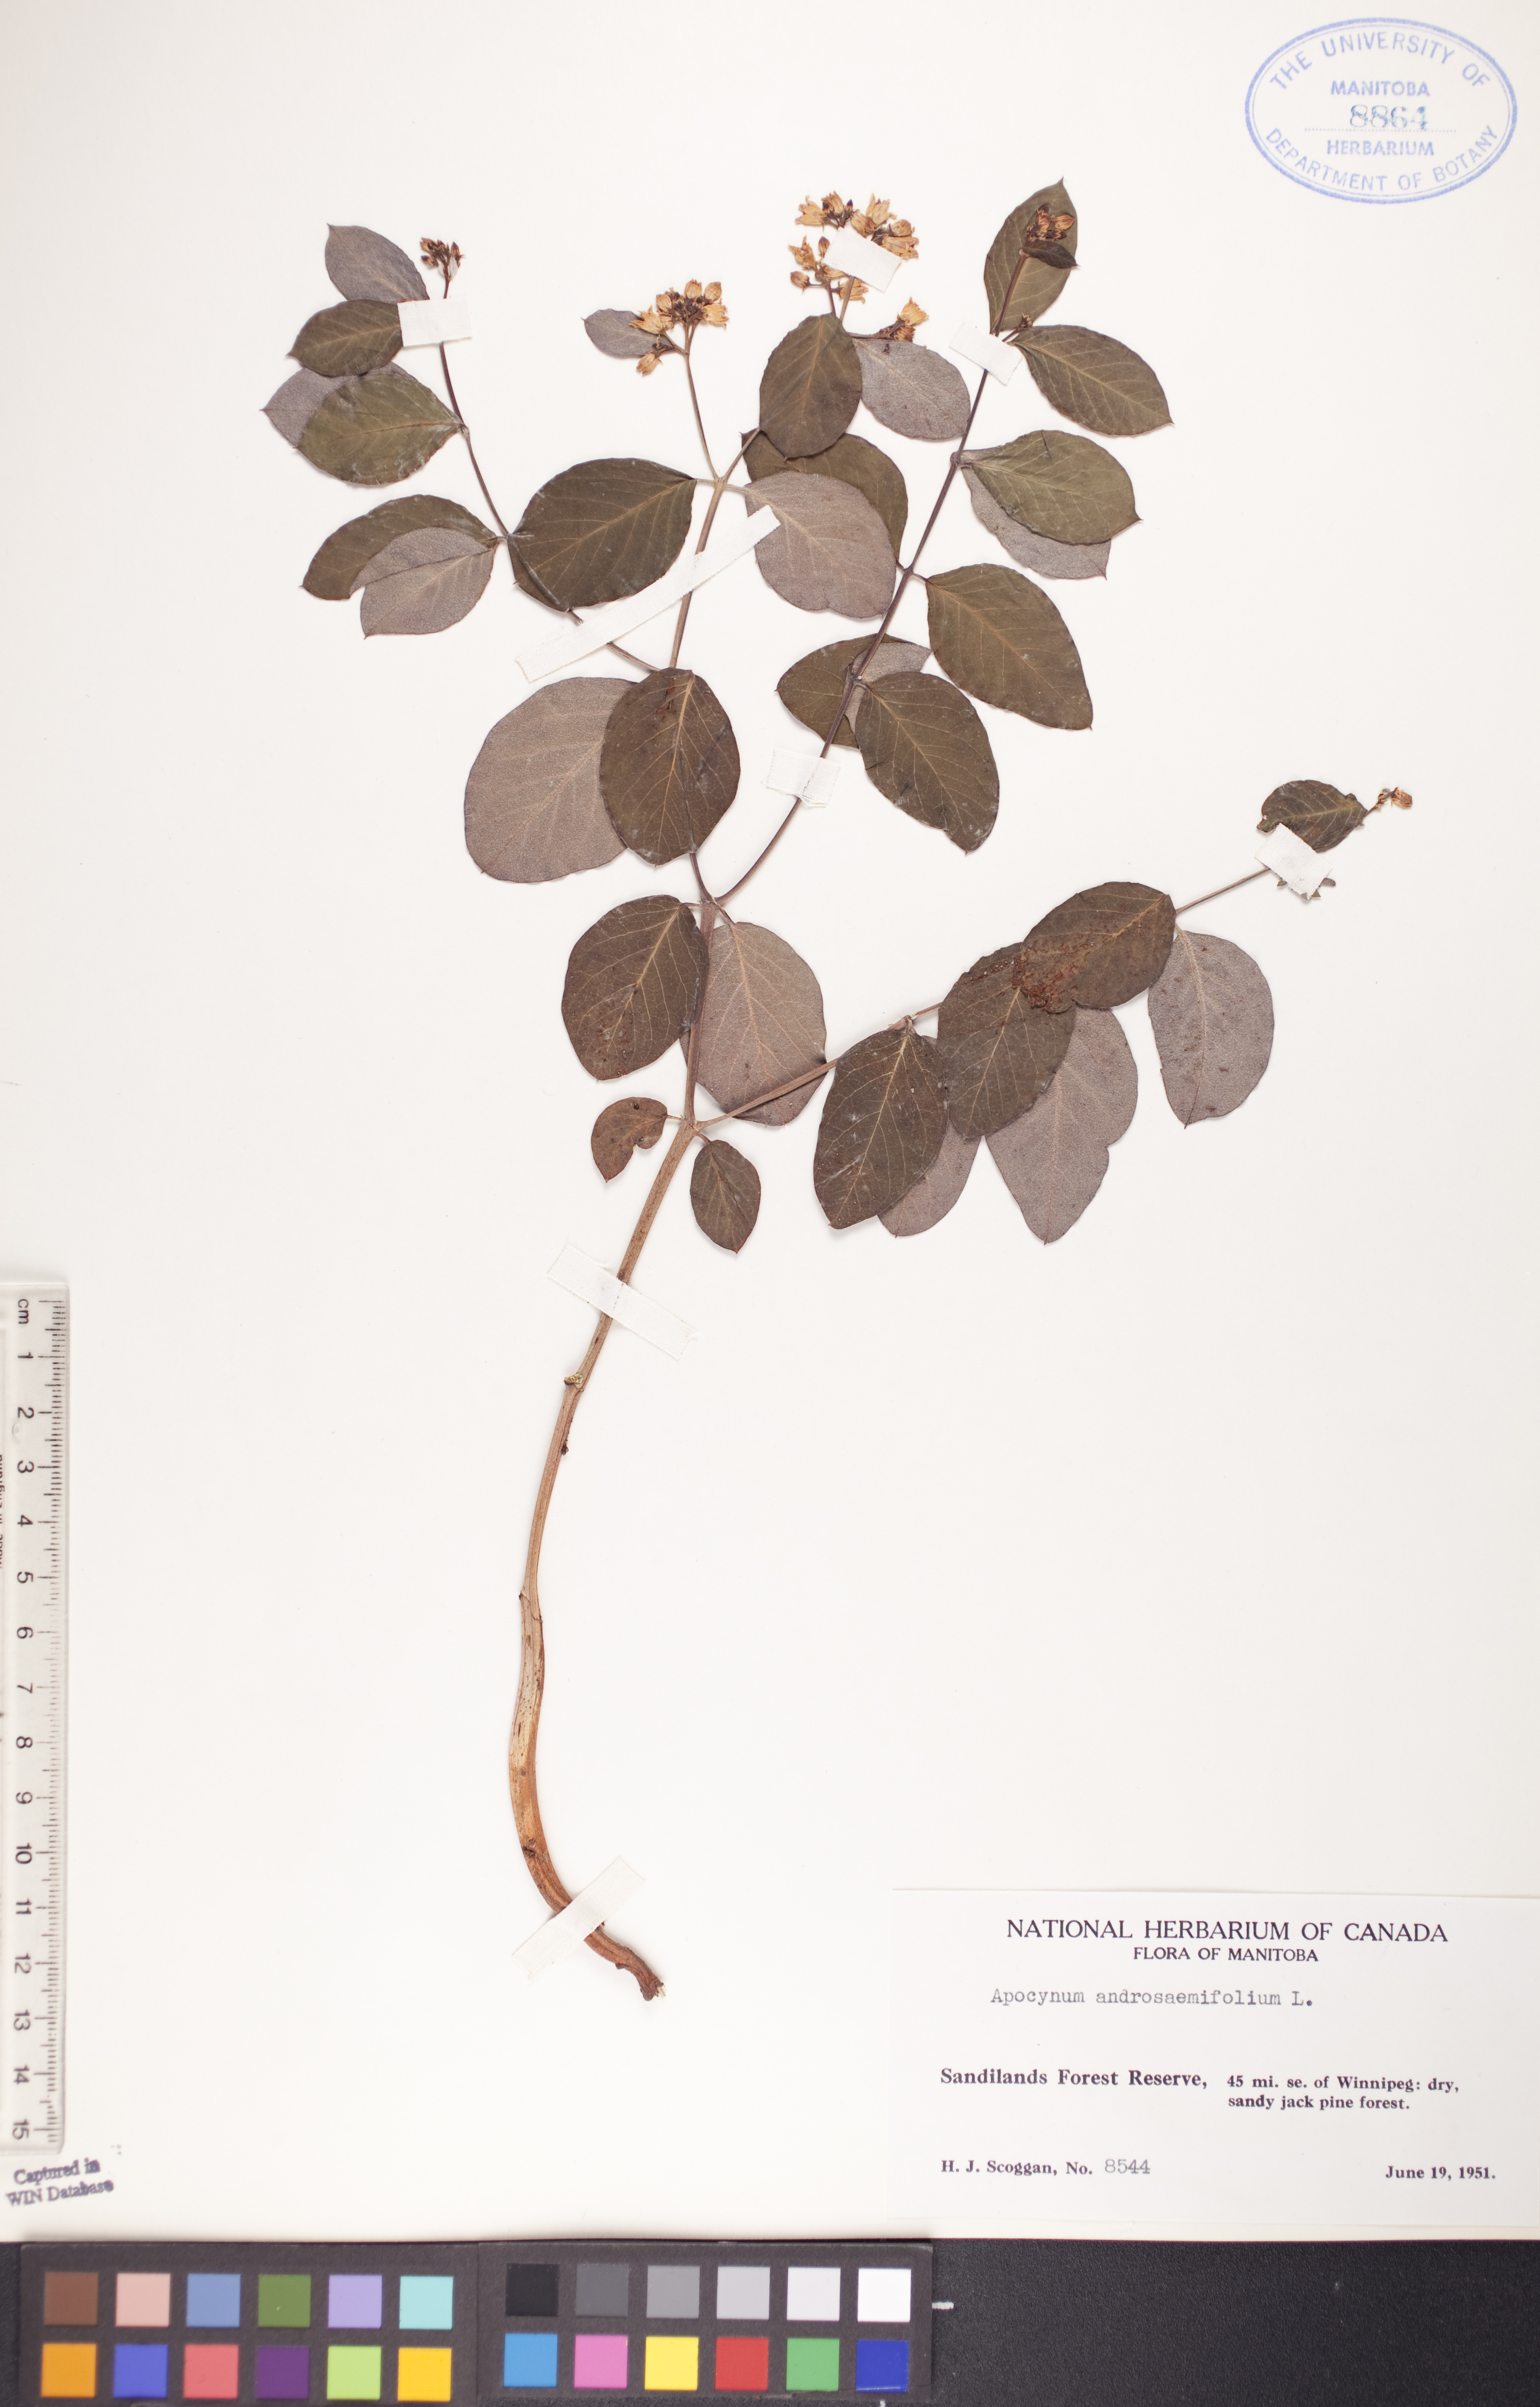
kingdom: Plantae
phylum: Tracheophyta
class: Magnoliopsida
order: Gentianales
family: Apocynaceae
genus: Apocynum
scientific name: Apocynum androsaemifolium
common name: Spreading dogbane
